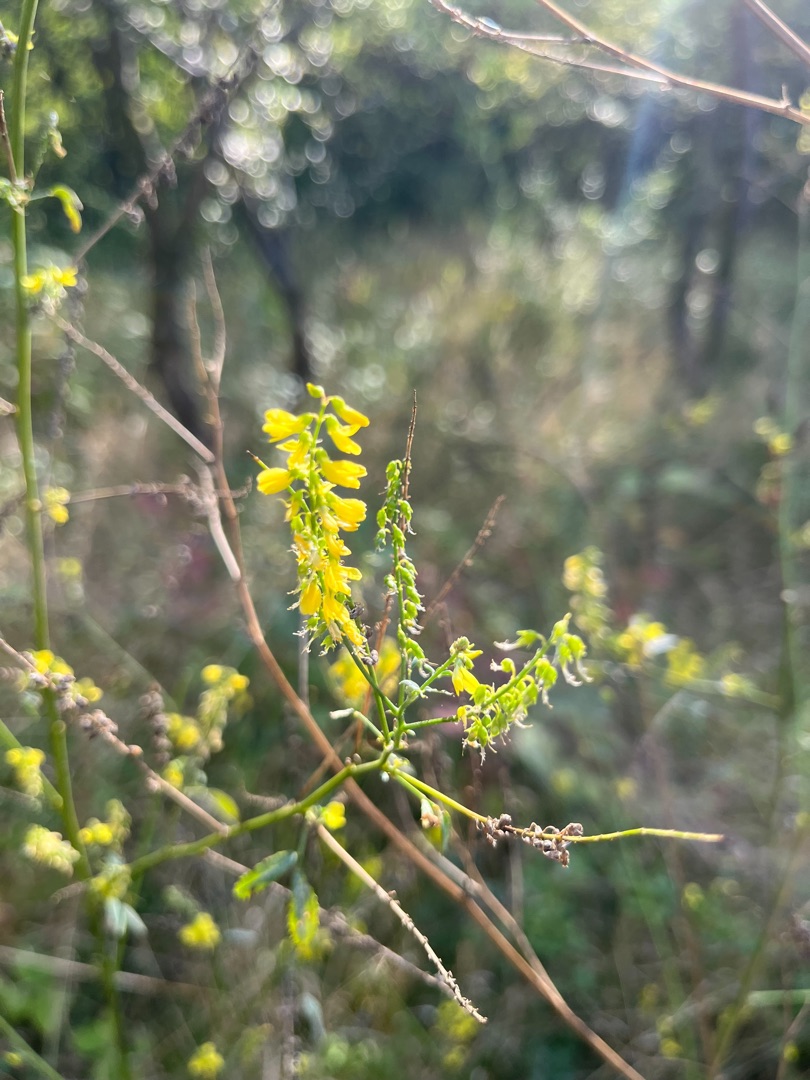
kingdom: Plantae
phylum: Tracheophyta
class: Magnoliopsida
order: Fabales
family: Fabaceae
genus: Melilotus
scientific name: Melilotus
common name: Stenkløverslægten
